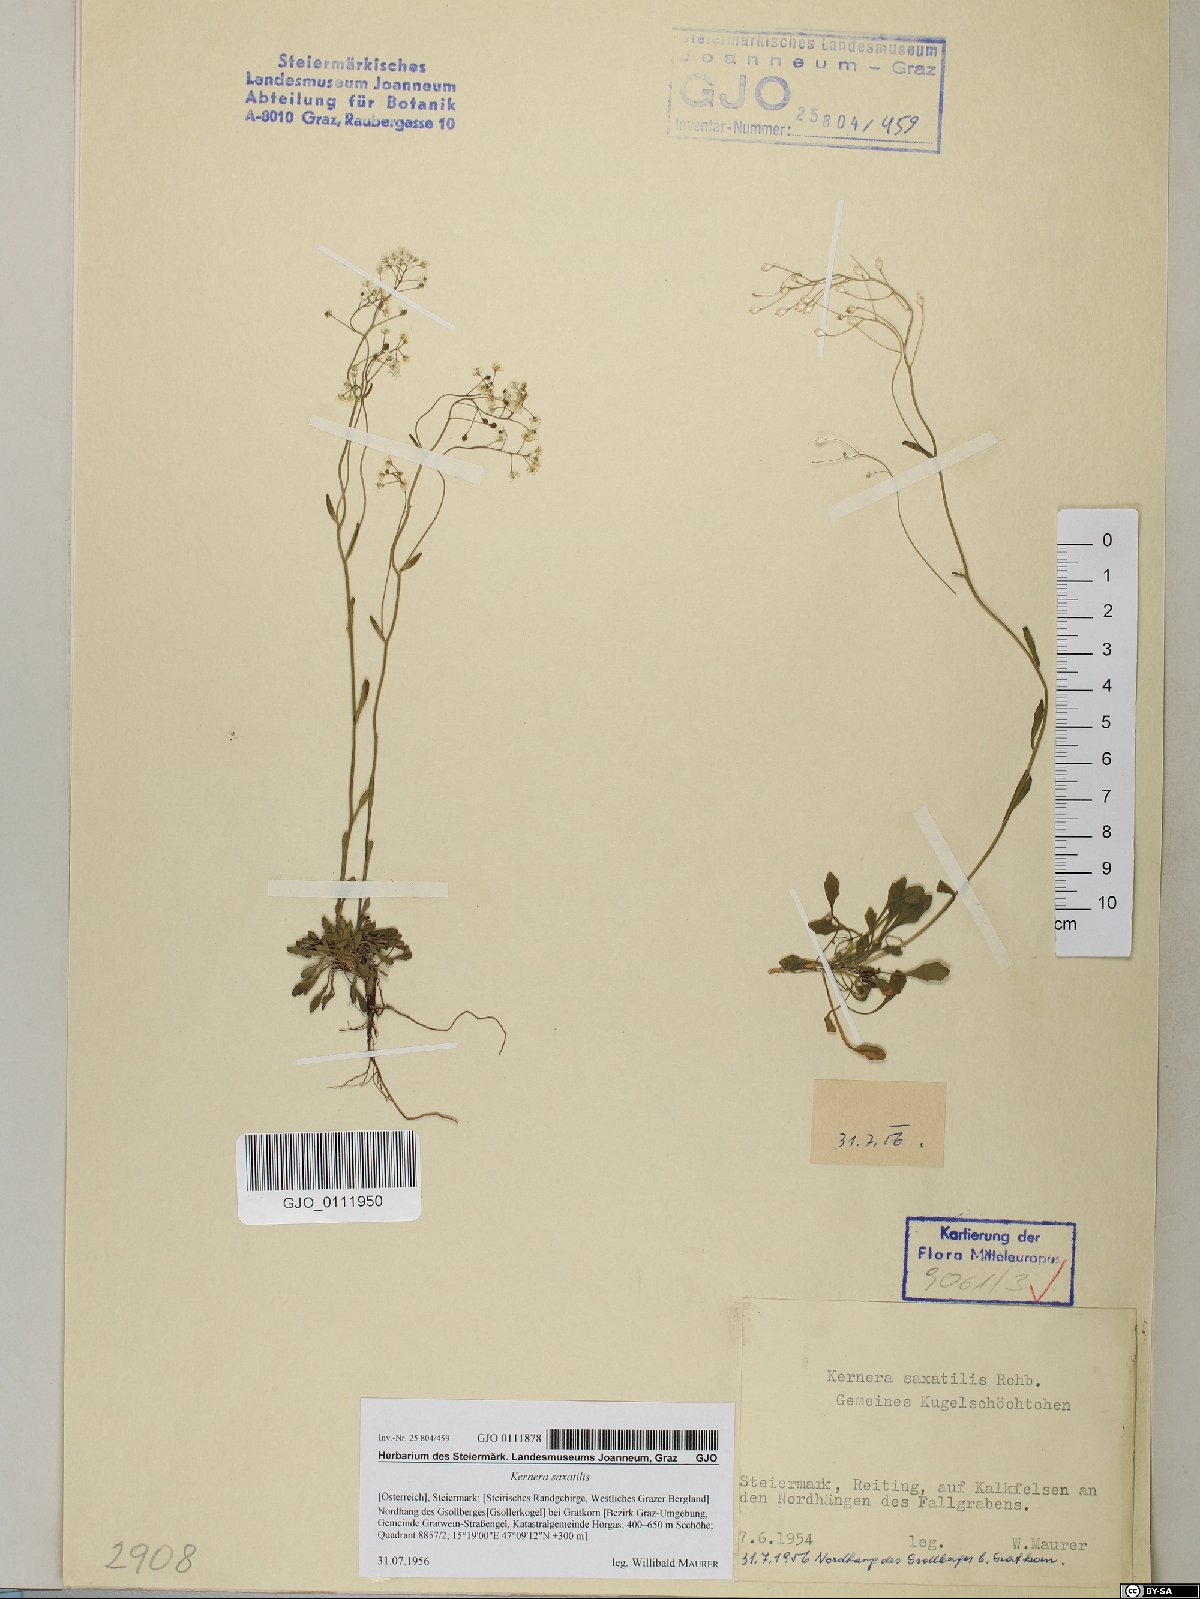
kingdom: Plantae
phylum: Tracheophyta
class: Magnoliopsida
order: Brassicales
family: Brassicaceae
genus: Kernera
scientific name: Kernera saxatilis
